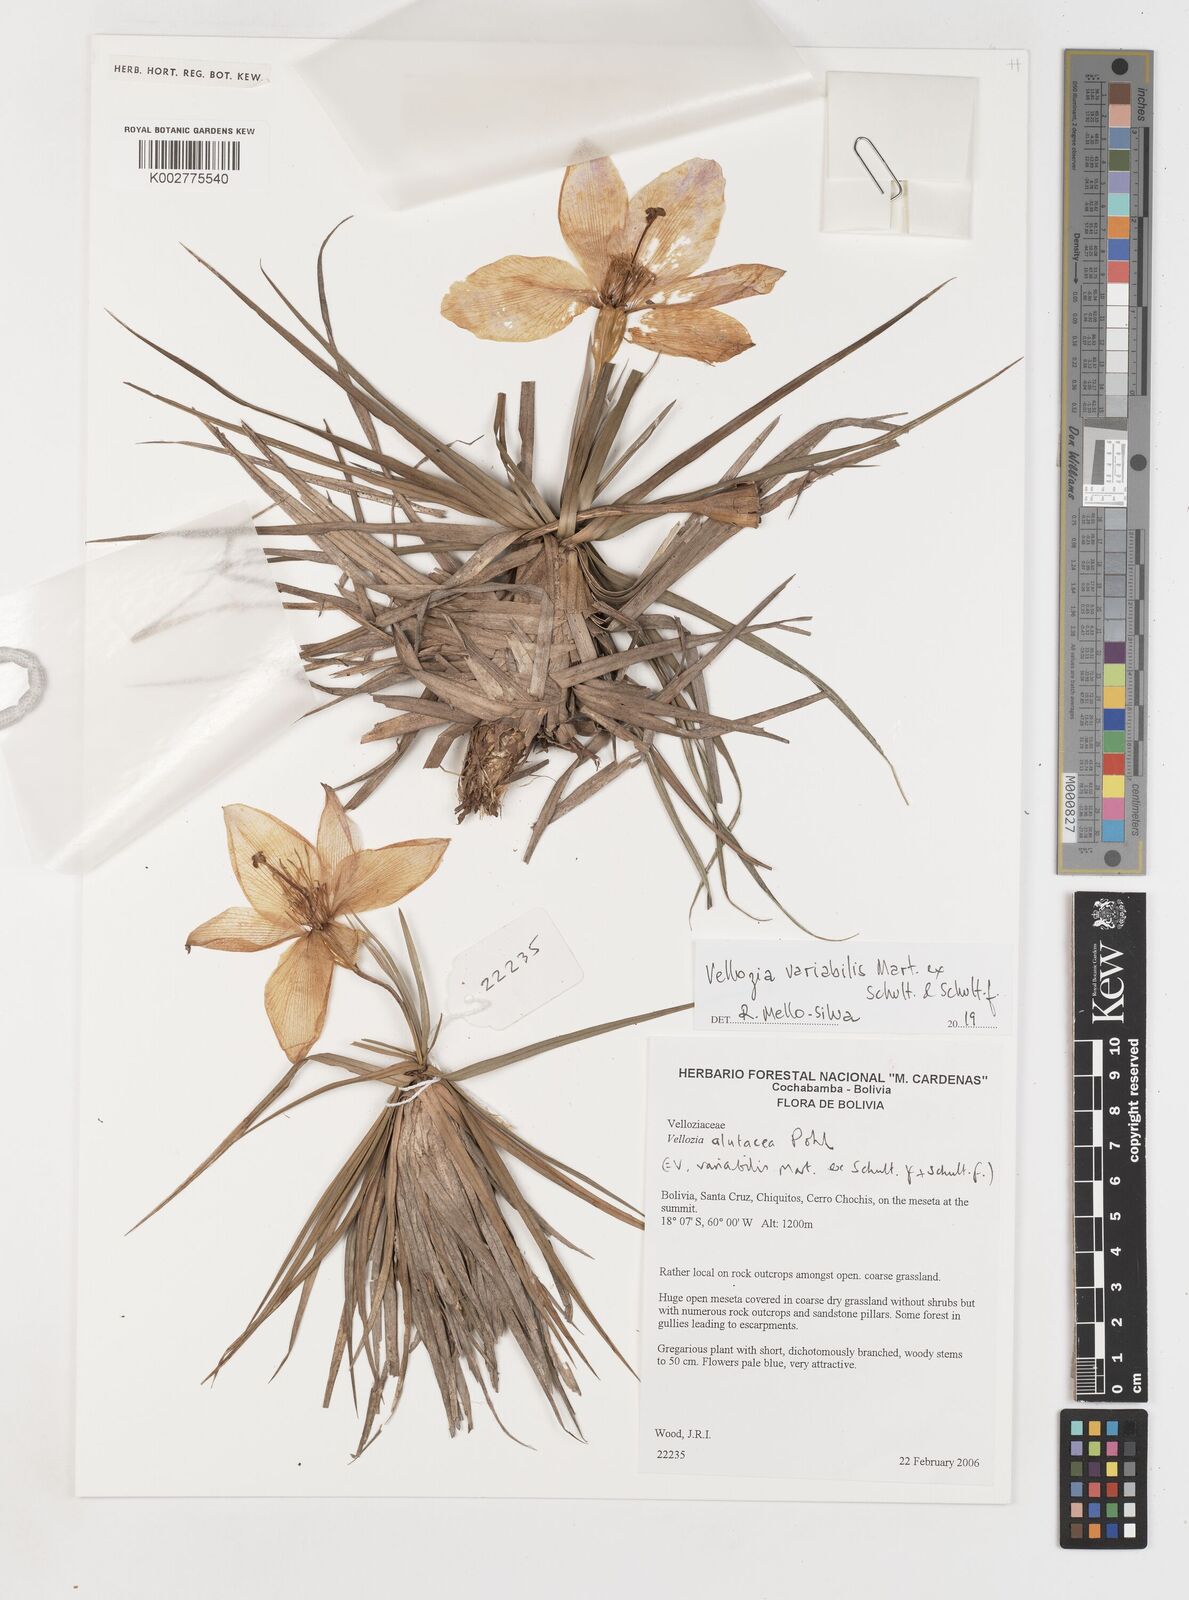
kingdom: Plantae
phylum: Tracheophyta
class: Liliopsida
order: Pandanales
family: Velloziaceae
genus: Vellozia
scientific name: Vellozia alutacea
